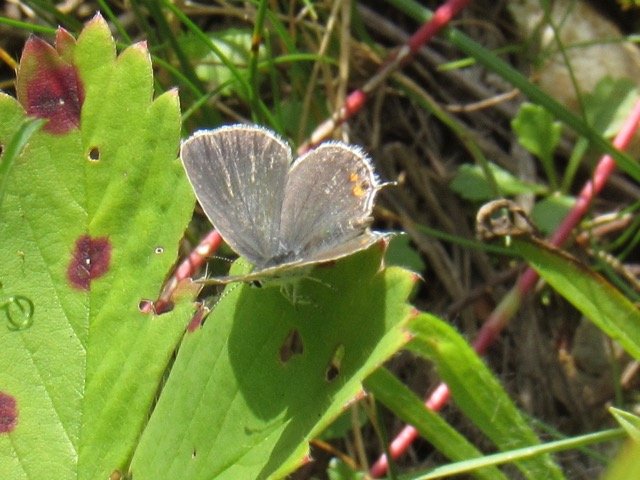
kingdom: Animalia
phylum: Arthropoda
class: Insecta
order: Lepidoptera
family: Lycaenidae
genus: Elkalyce
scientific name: Elkalyce comyntas
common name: Eastern Tailed-Blue
